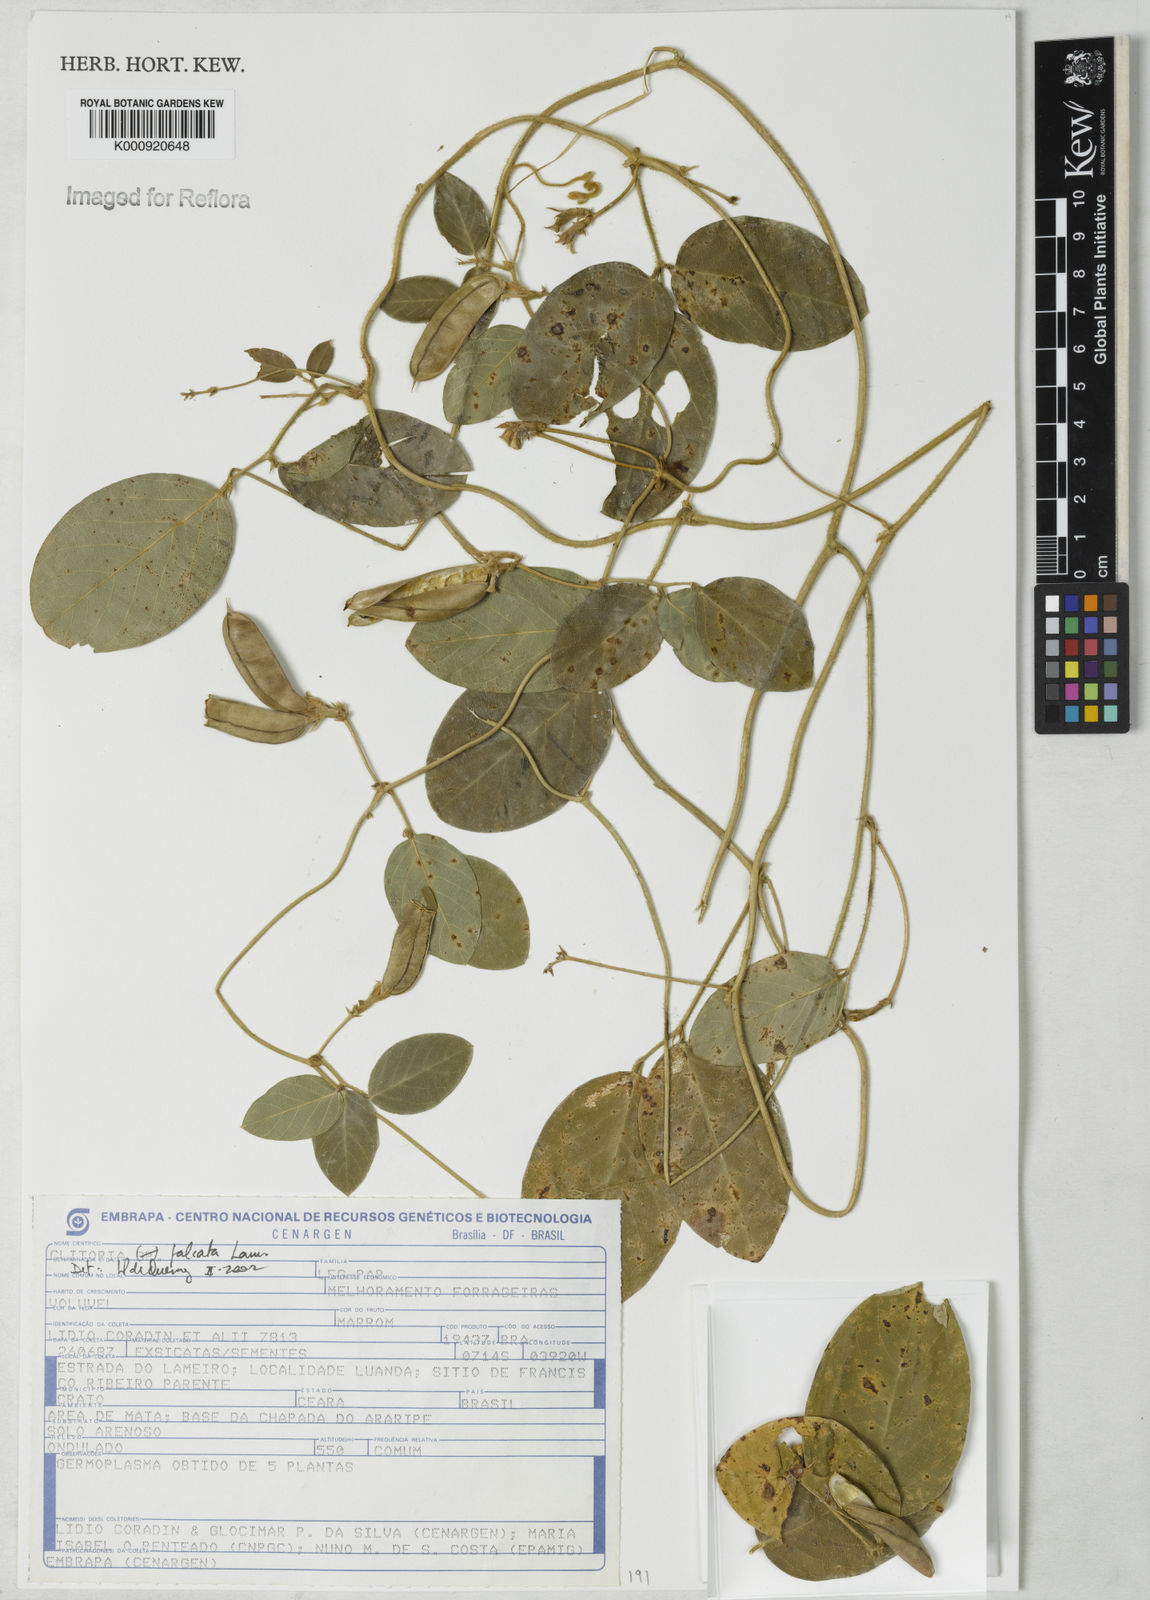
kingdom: Plantae
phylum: Tracheophyta
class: Magnoliopsida
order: Fabales
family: Fabaceae
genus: Clitoria
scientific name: Clitoria
